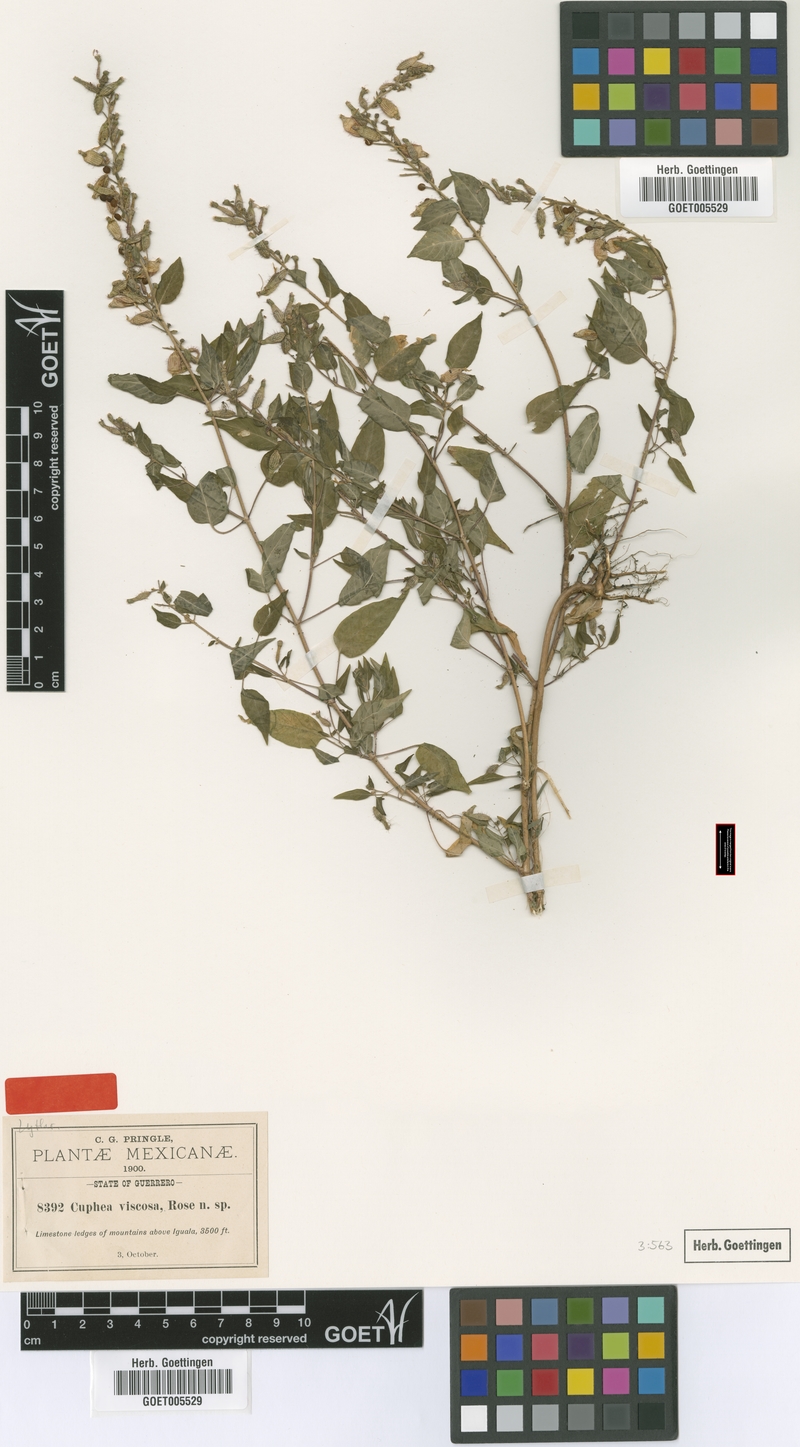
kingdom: Plantae
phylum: Tracheophyta
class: Magnoliopsida
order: Myrtales
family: Lythraceae
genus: Cuphea
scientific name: Cuphea viscosa
